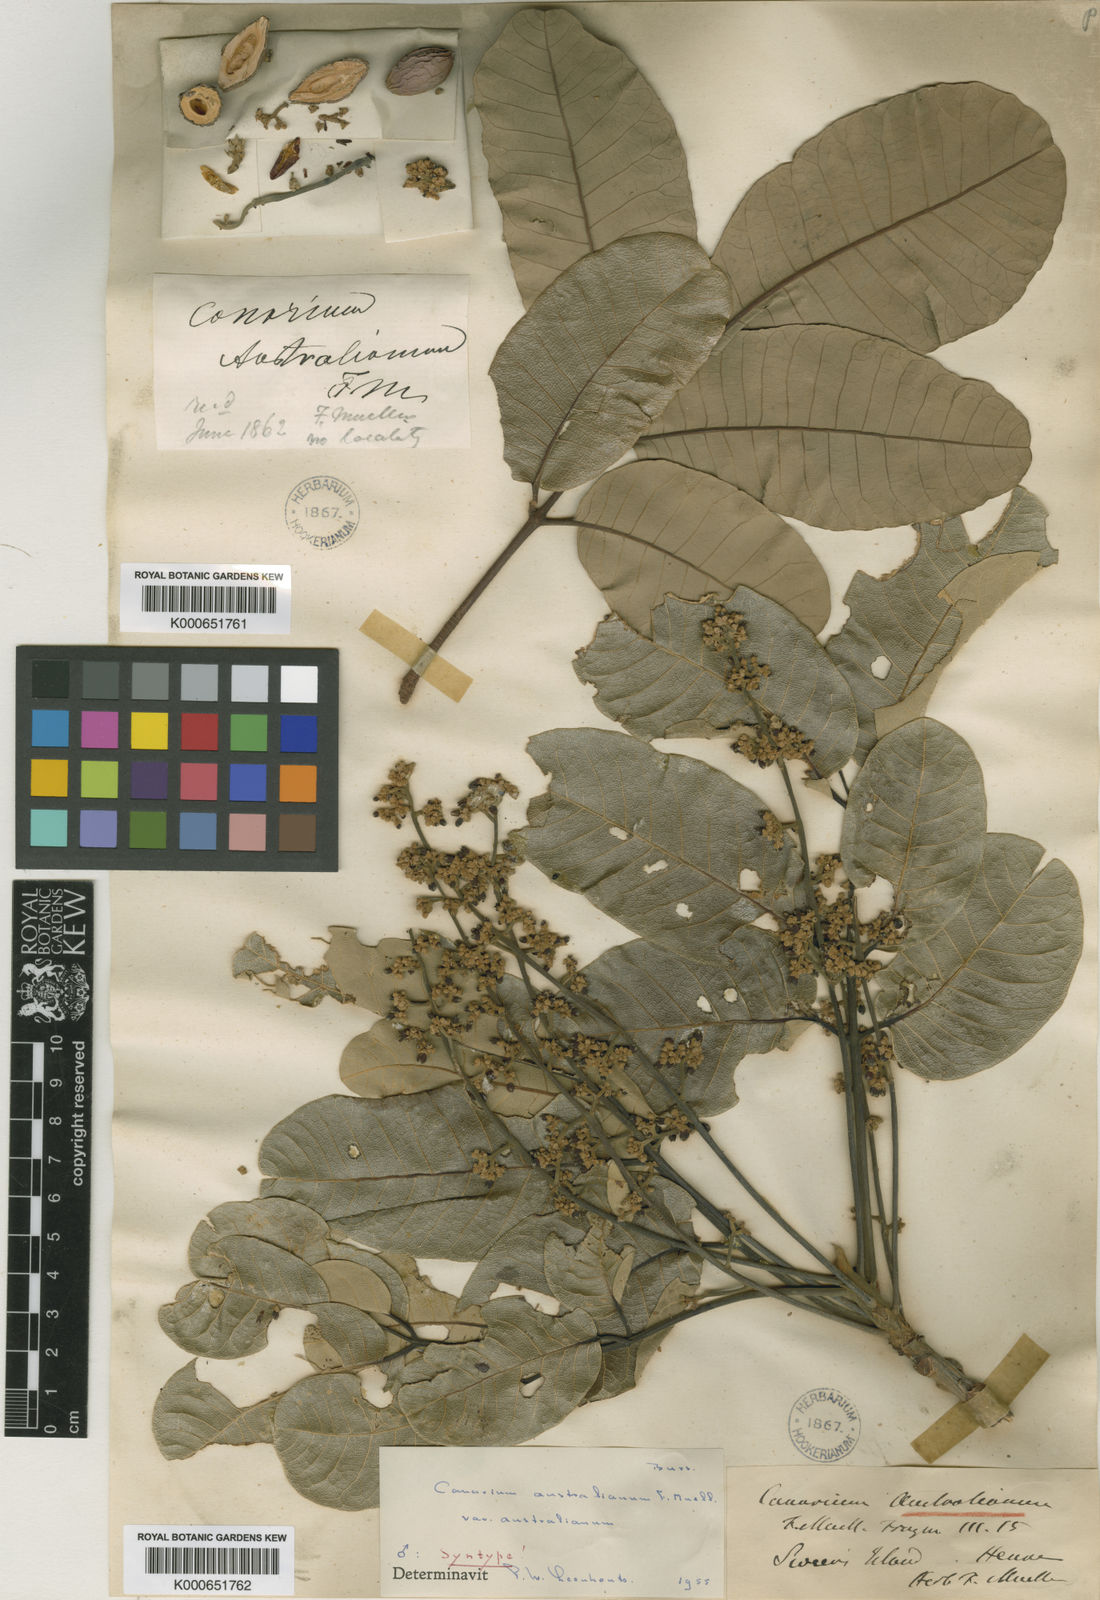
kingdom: Plantae
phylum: Tracheophyta
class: Magnoliopsida
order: Sapindales
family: Burseraceae
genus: Canarium
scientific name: Canarium australianum
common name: Island white-beech
